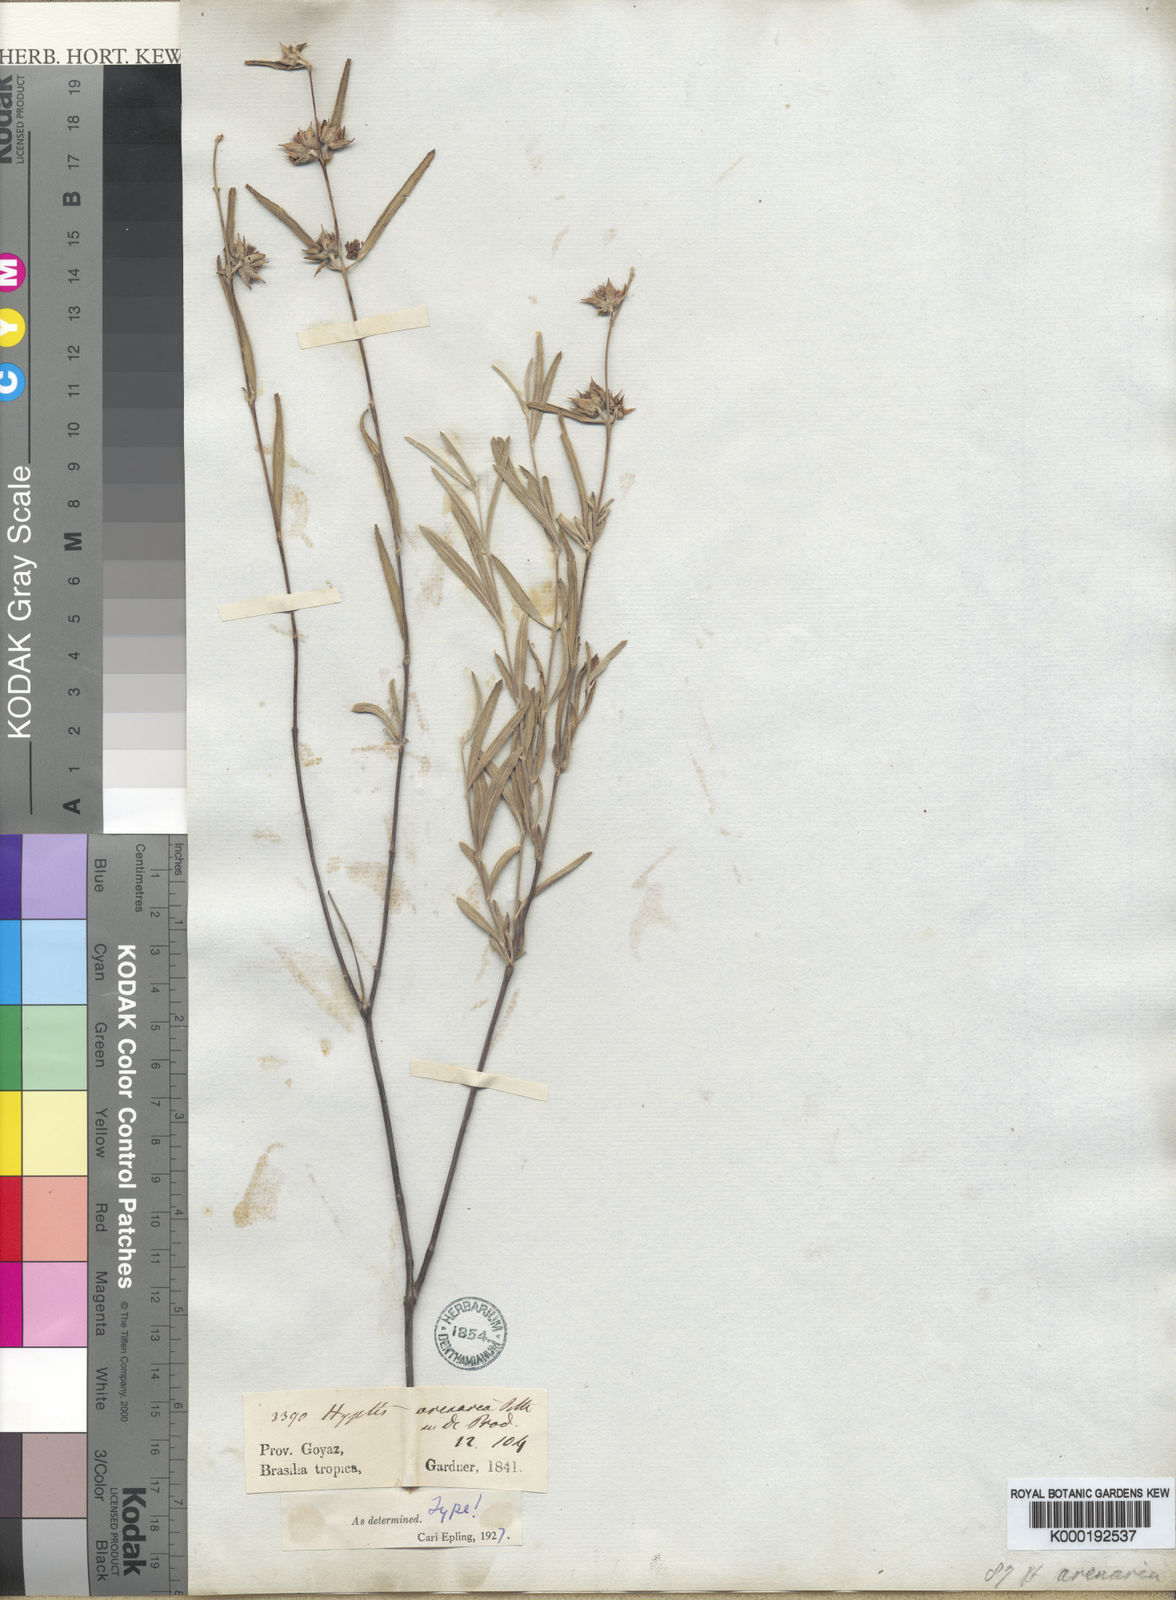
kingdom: Plantae
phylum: Tracheophyta
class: Magnoliopsida
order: Lamiales
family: Lamiaceae
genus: Hyptis
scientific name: Hyptis arenaria
